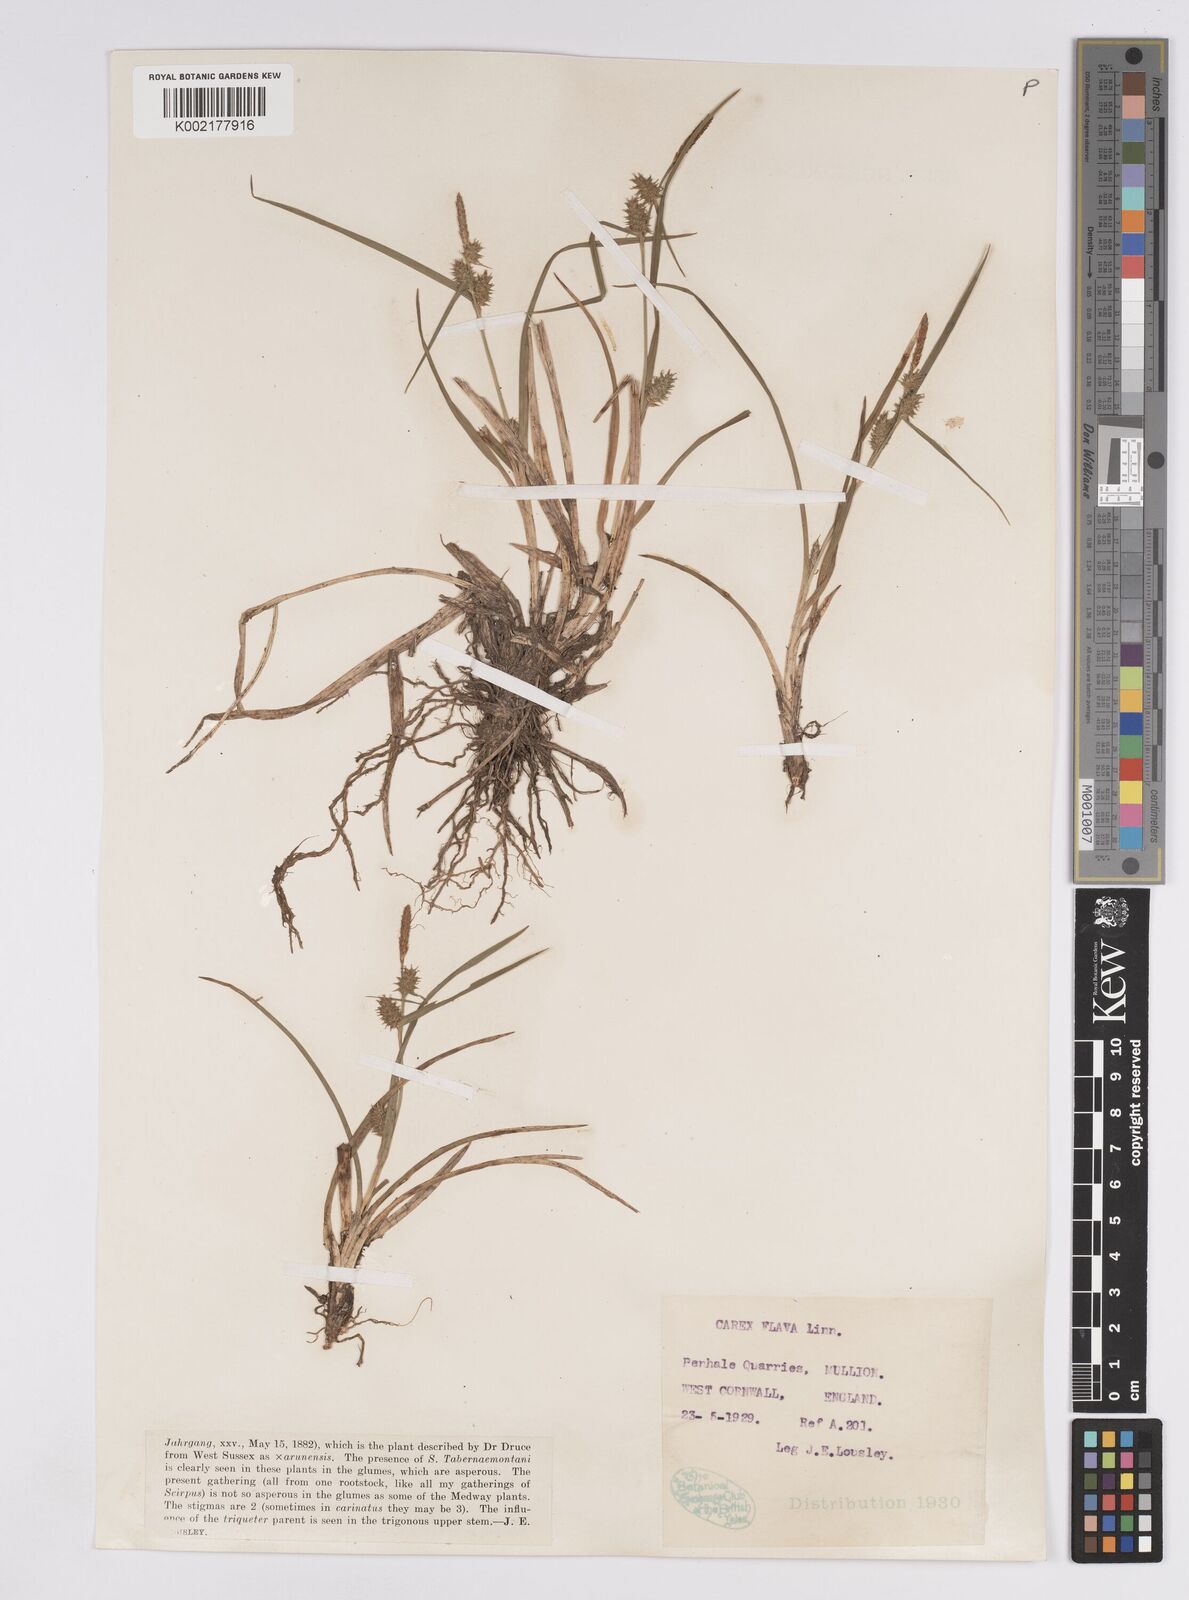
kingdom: Plantae
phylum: Tracheophyta
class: Liliopsida
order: Poales
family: Cyperaceae
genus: Carex
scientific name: Carex demissa
